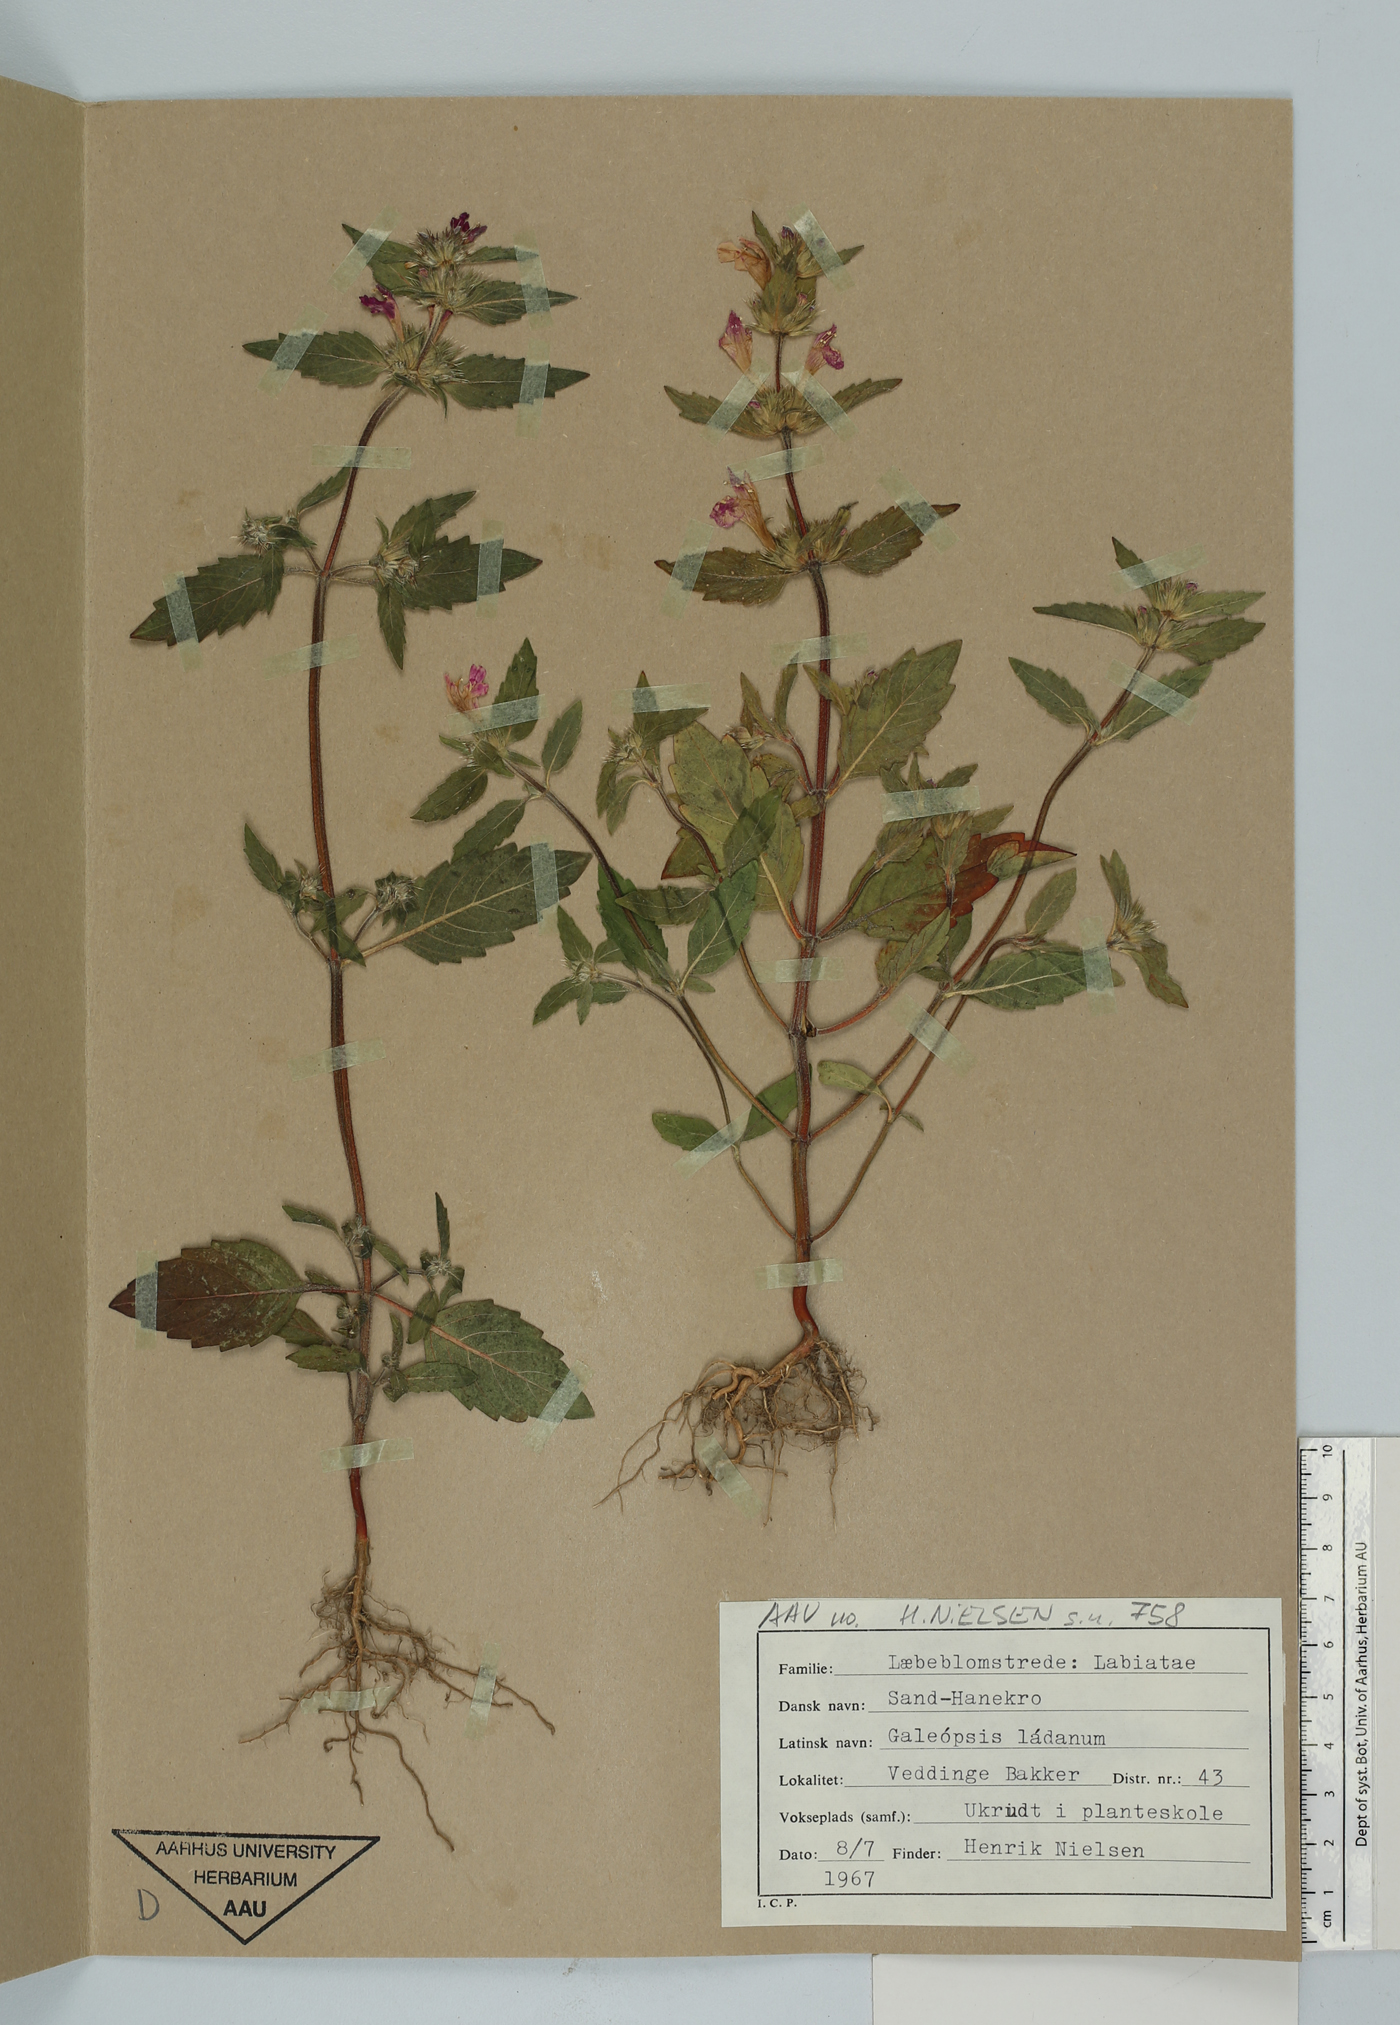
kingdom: Plantae
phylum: Tracheophyta
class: Magnoliopsida
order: Lamiales
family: Lamiaceae
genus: Galeopsis
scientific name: Galeopsis ladanum
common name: Broad-leaved hemp-nettle
